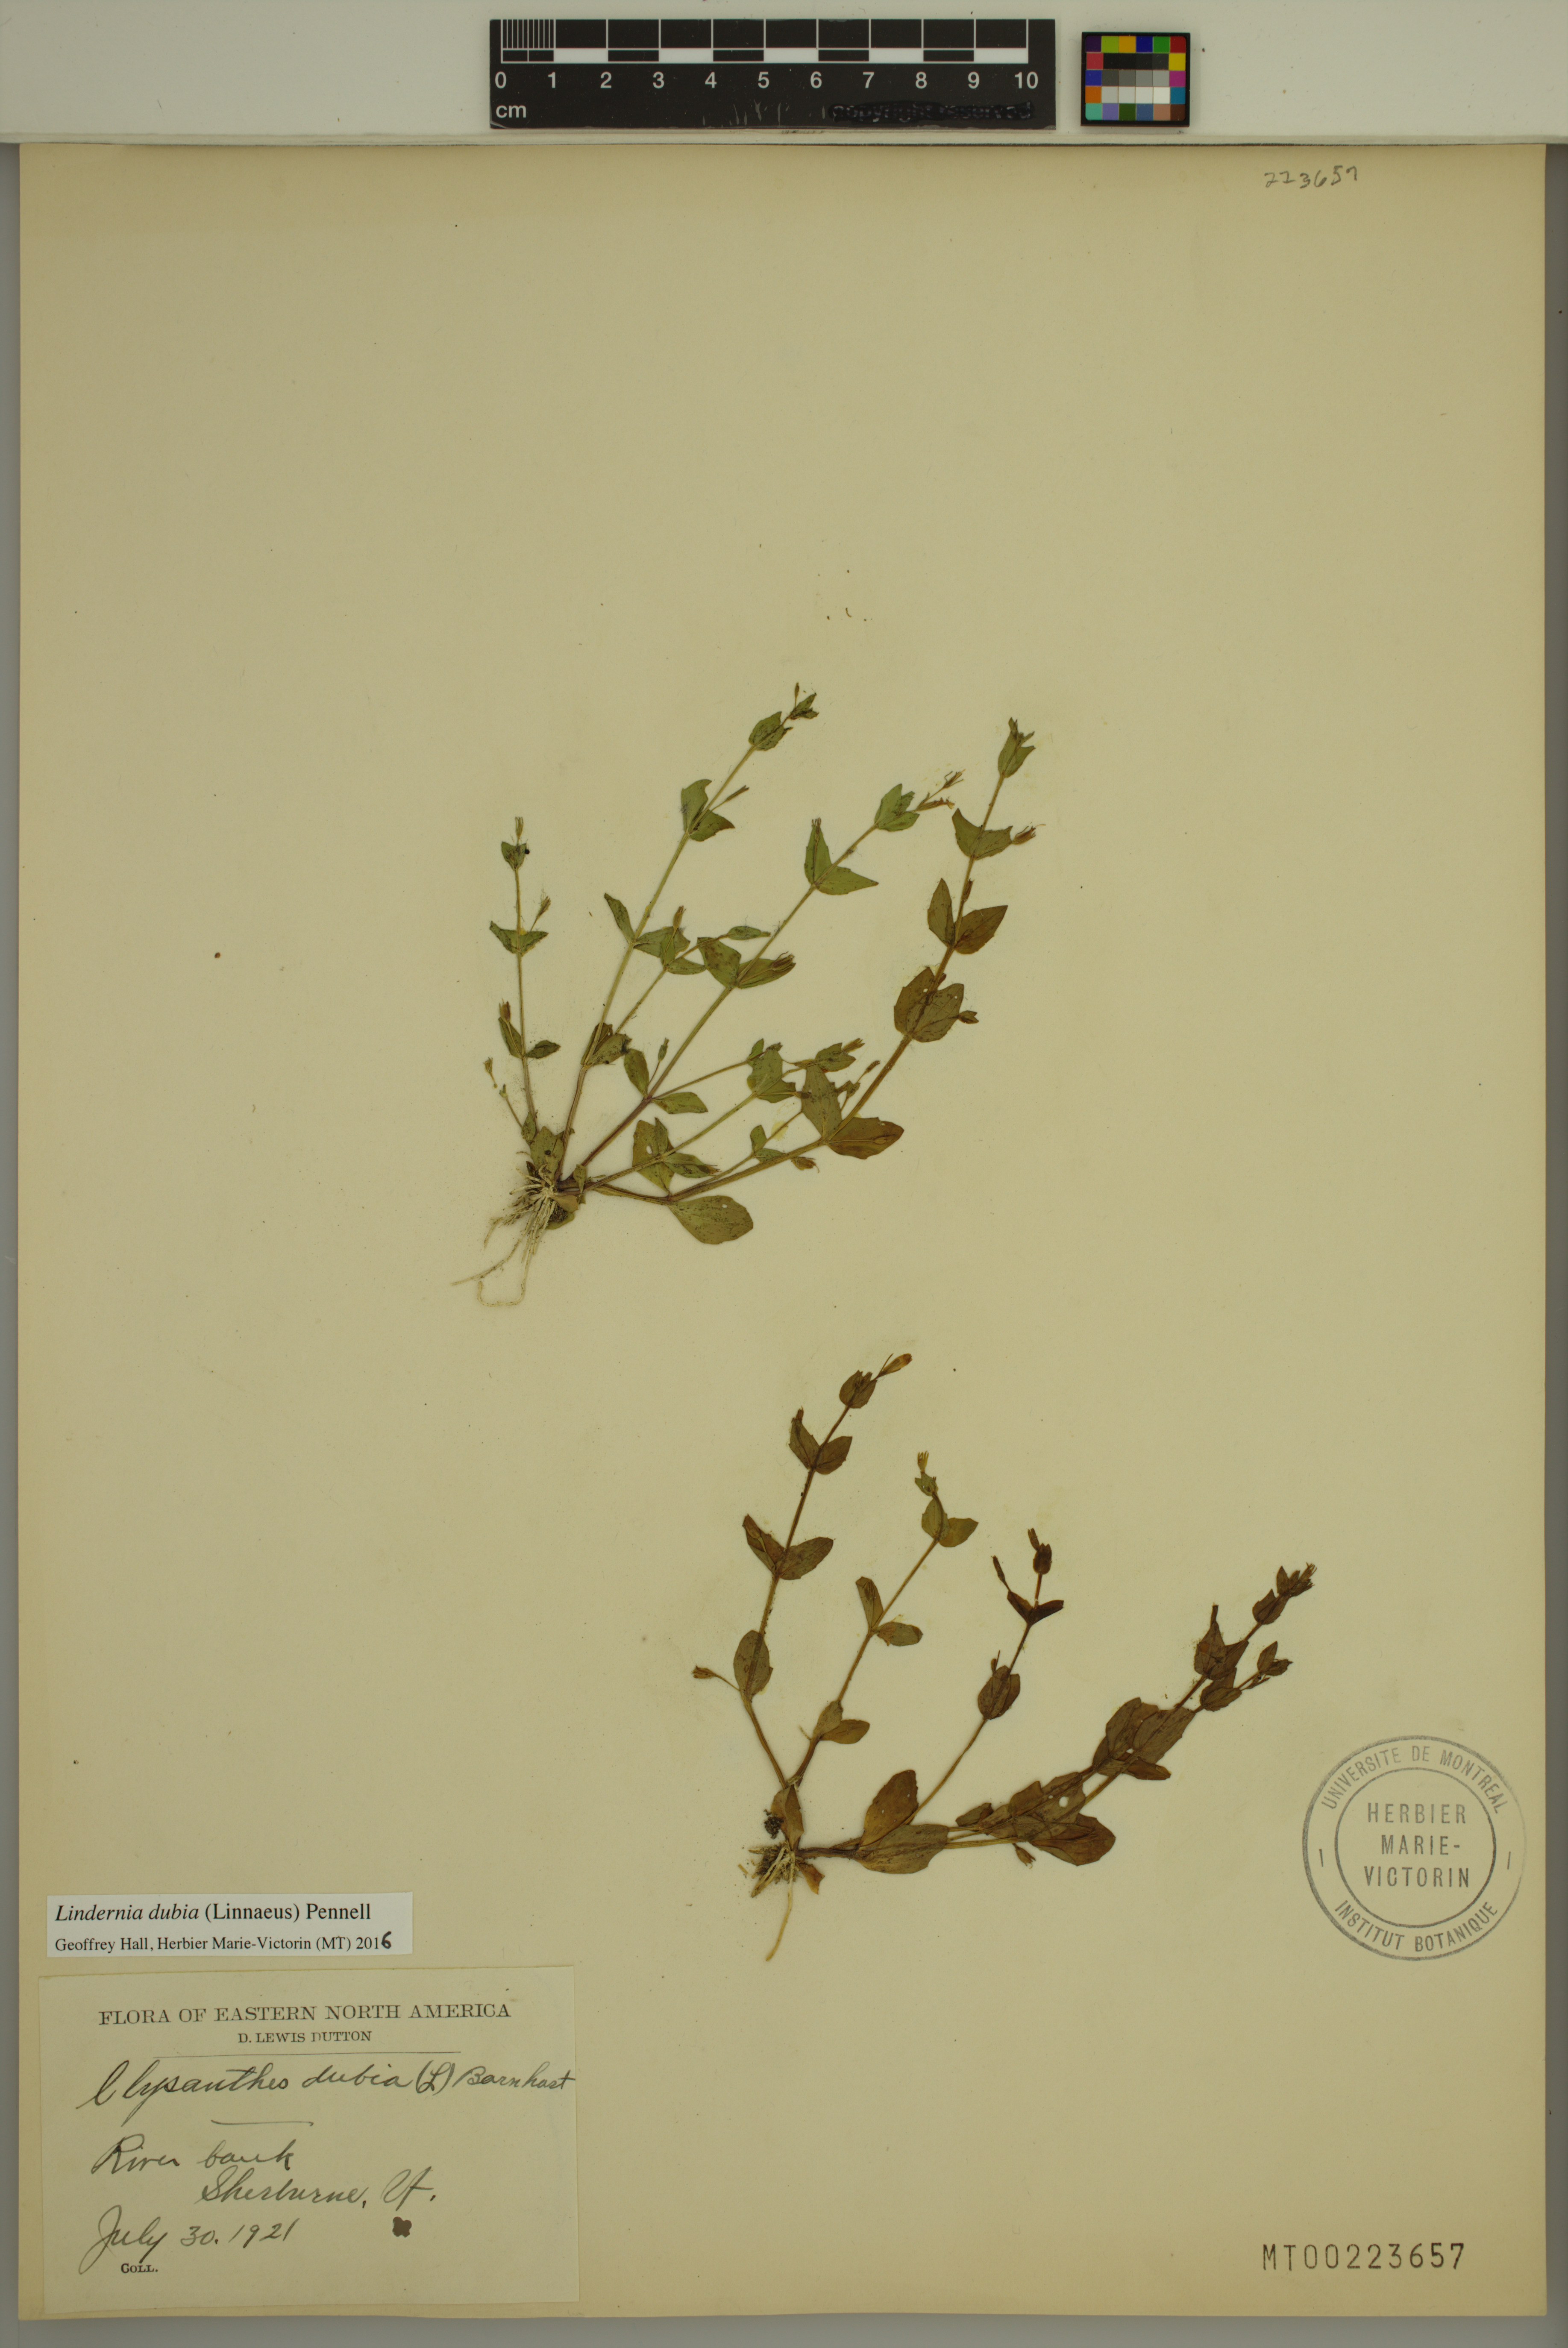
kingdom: Plantae
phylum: Tracheophyta
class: Magnoliopsida
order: Lamiales
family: Linderniaceae
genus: Lindernia
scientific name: Lindernia dubia
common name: Annual false pimpernel
